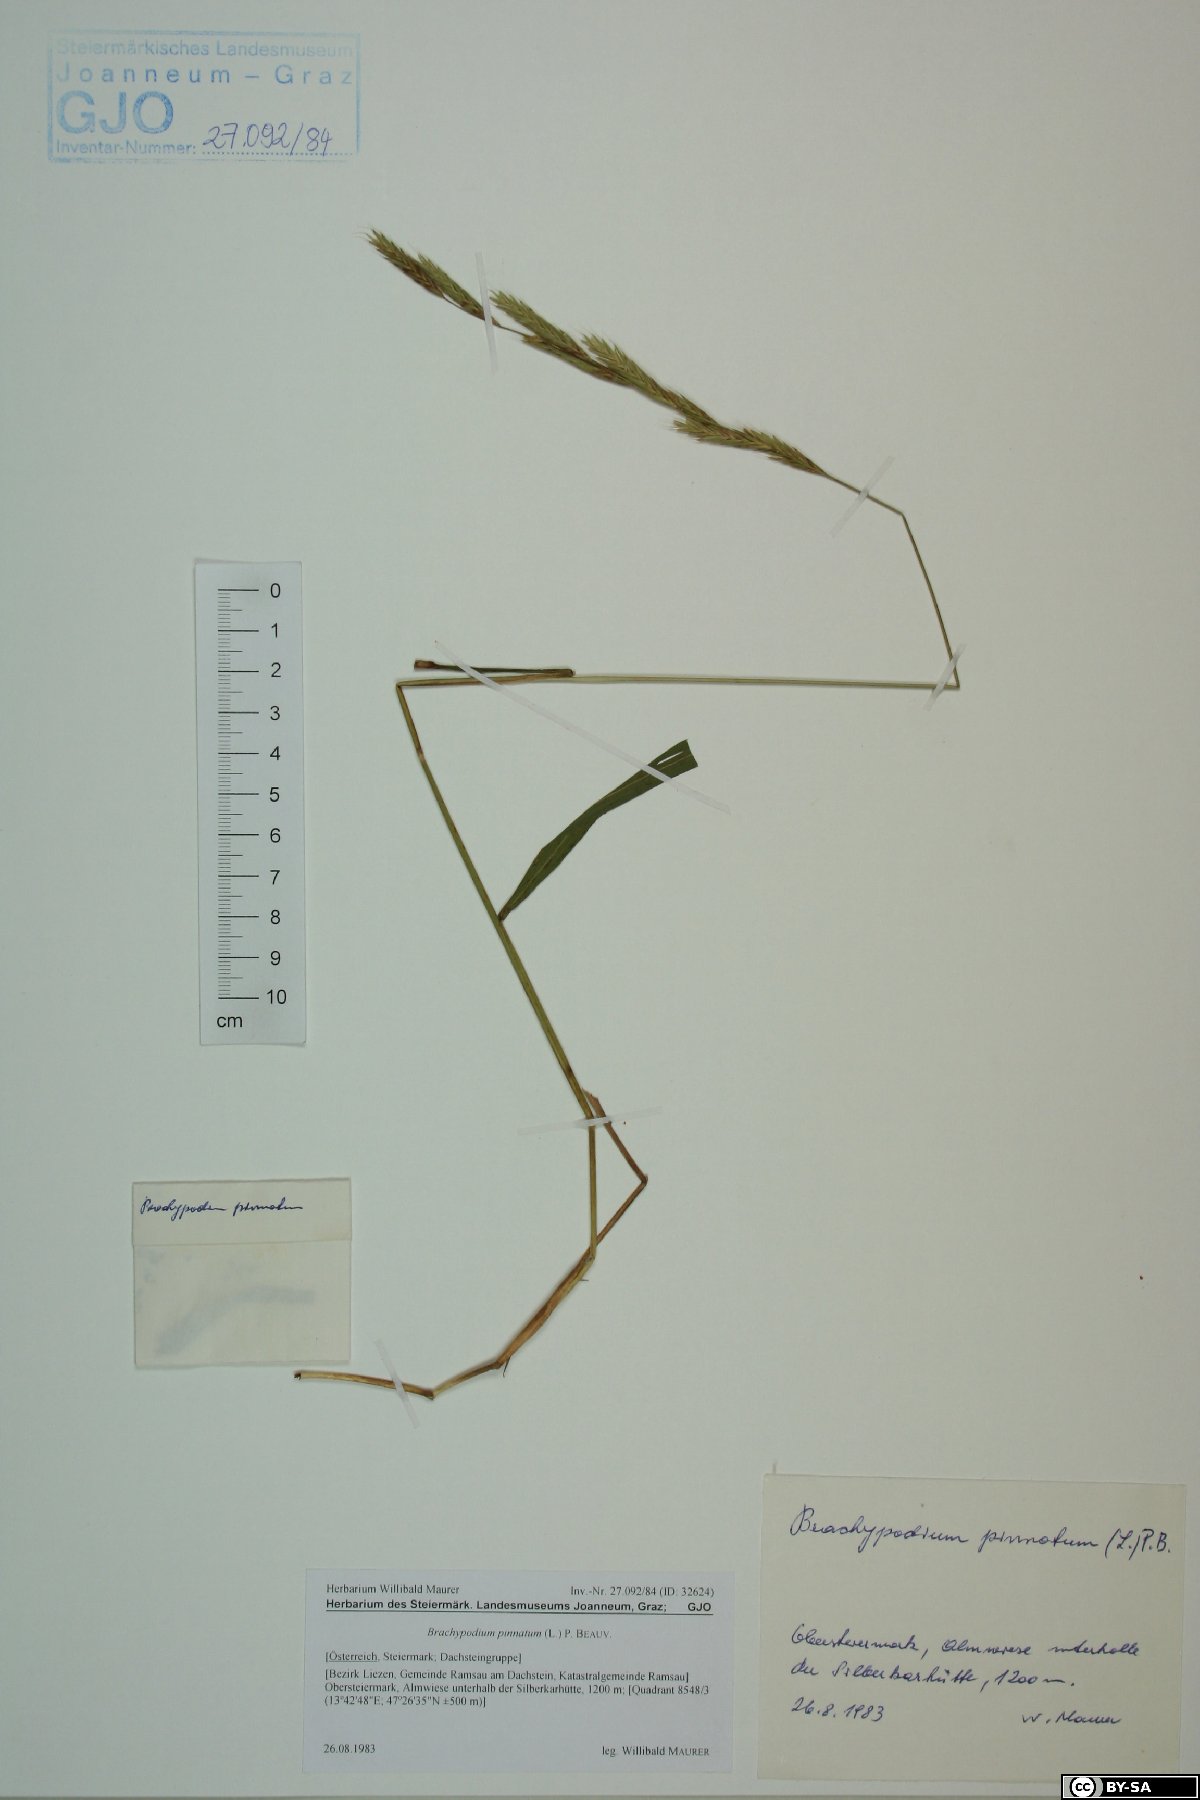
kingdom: Plantae
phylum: Tracheophyta
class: Liliopsida
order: Poales
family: Poaceae
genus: Brachypodium
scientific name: Brachypodium pinnatum
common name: Tor grass
